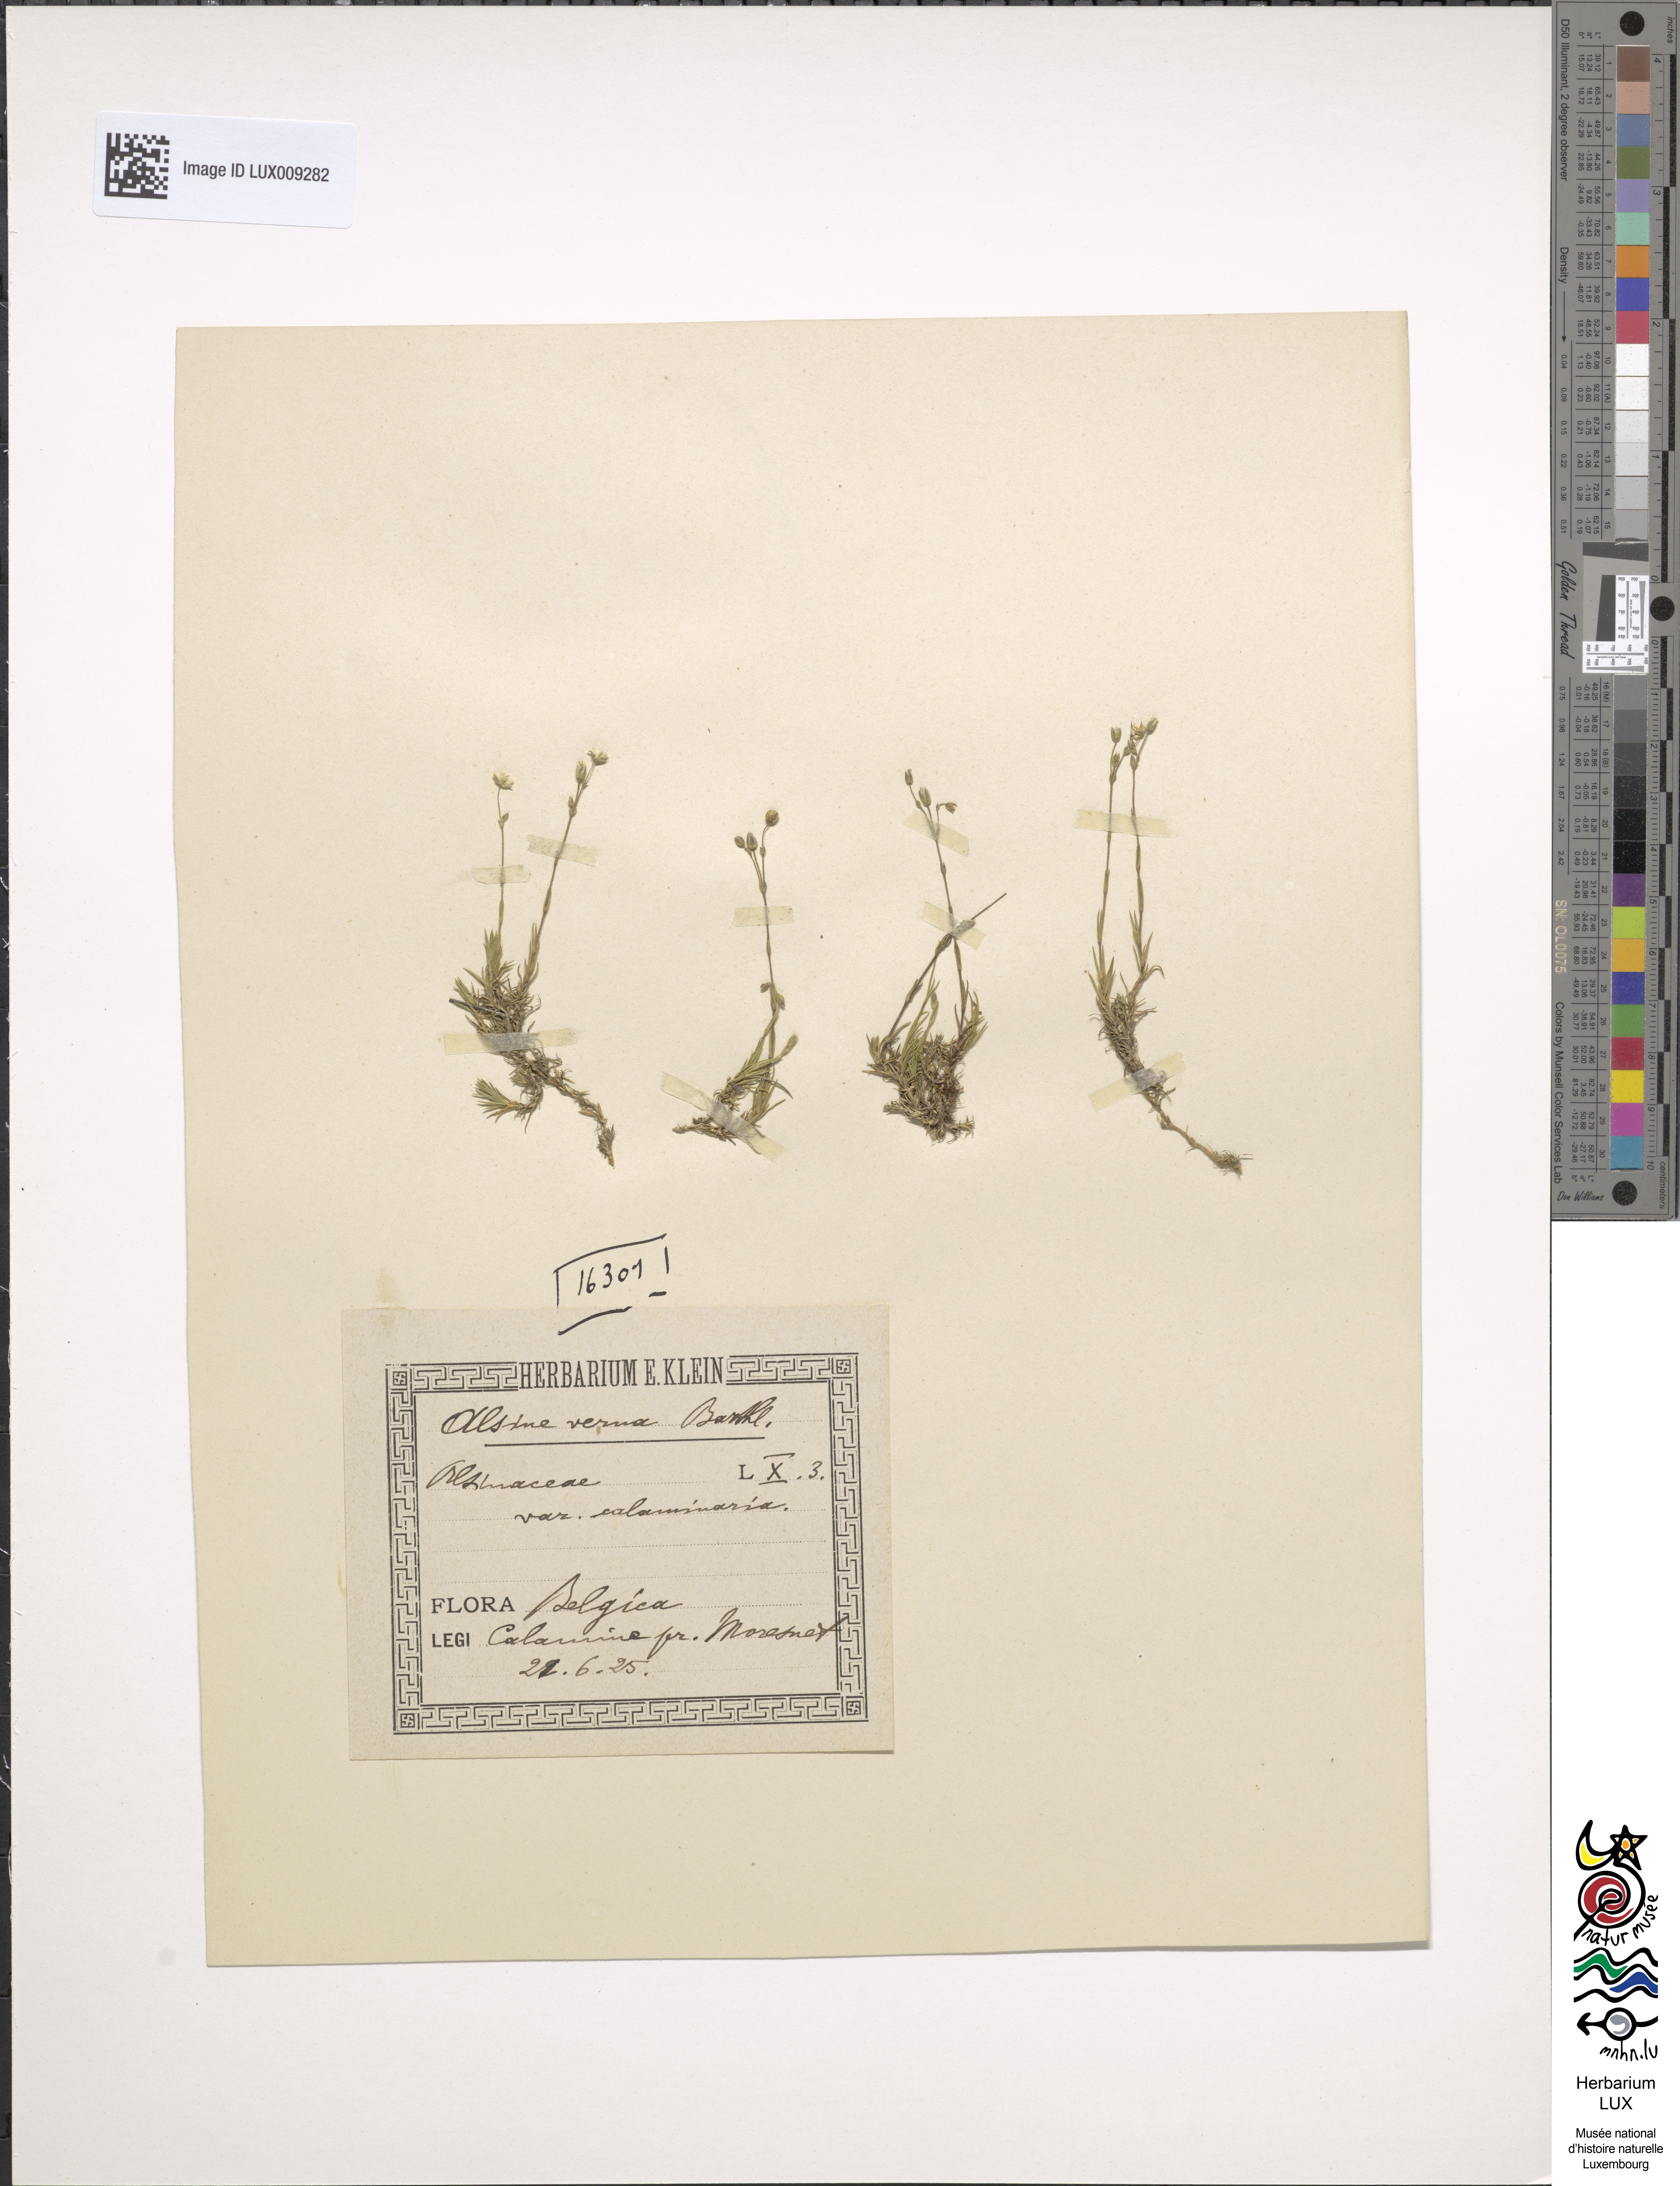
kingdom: Plantae
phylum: Tracheophyta
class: Magnoliopsida
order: Caryophyllales
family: Caryophyllaceae
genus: Sabulina
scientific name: Sabulina verna
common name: Spring sandwort
